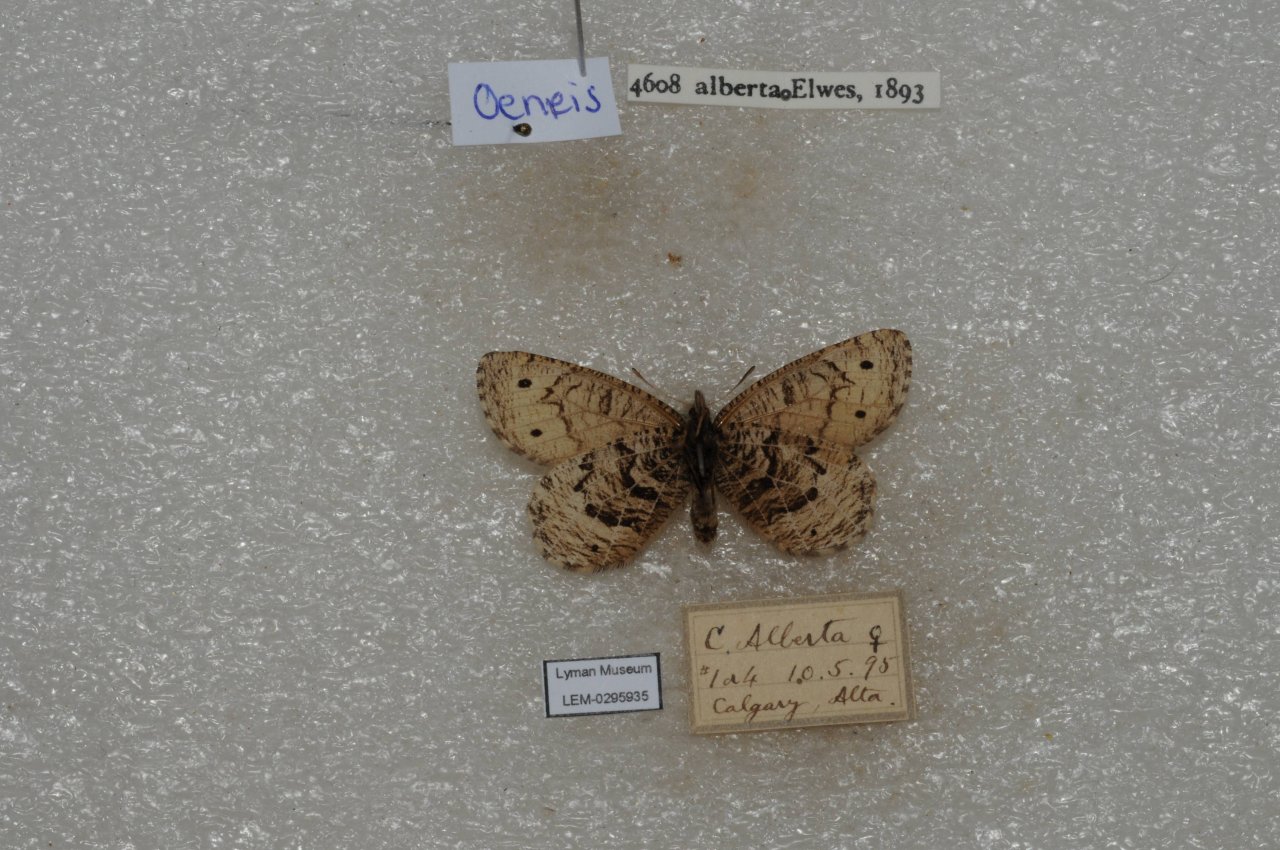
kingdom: Animalia
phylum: Arthropoda
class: Insecta
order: Lepidoptera
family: Nymphalidae
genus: Oeneis
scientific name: Oeneis alberta
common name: Alberta Arctic
